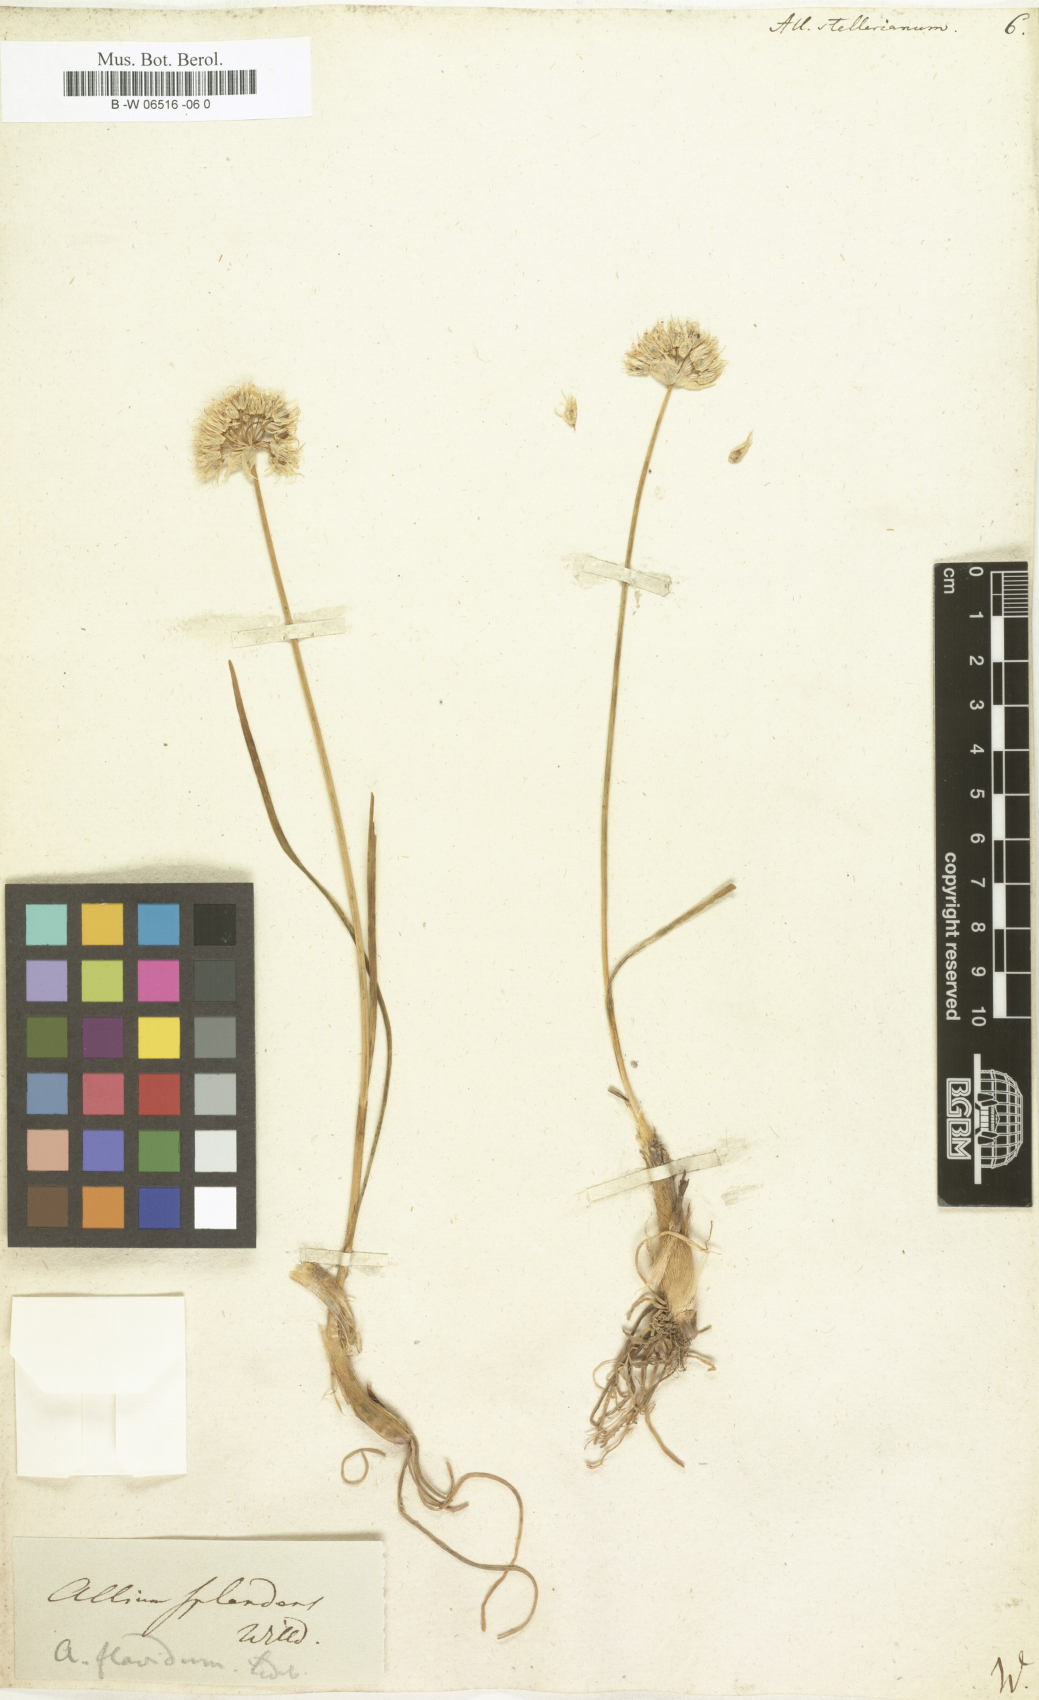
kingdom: Plantae
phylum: Tracheophyta
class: Liliopsida
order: Asparagales
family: Amaryllidaceae
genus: Allium
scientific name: Allium stellerianum
